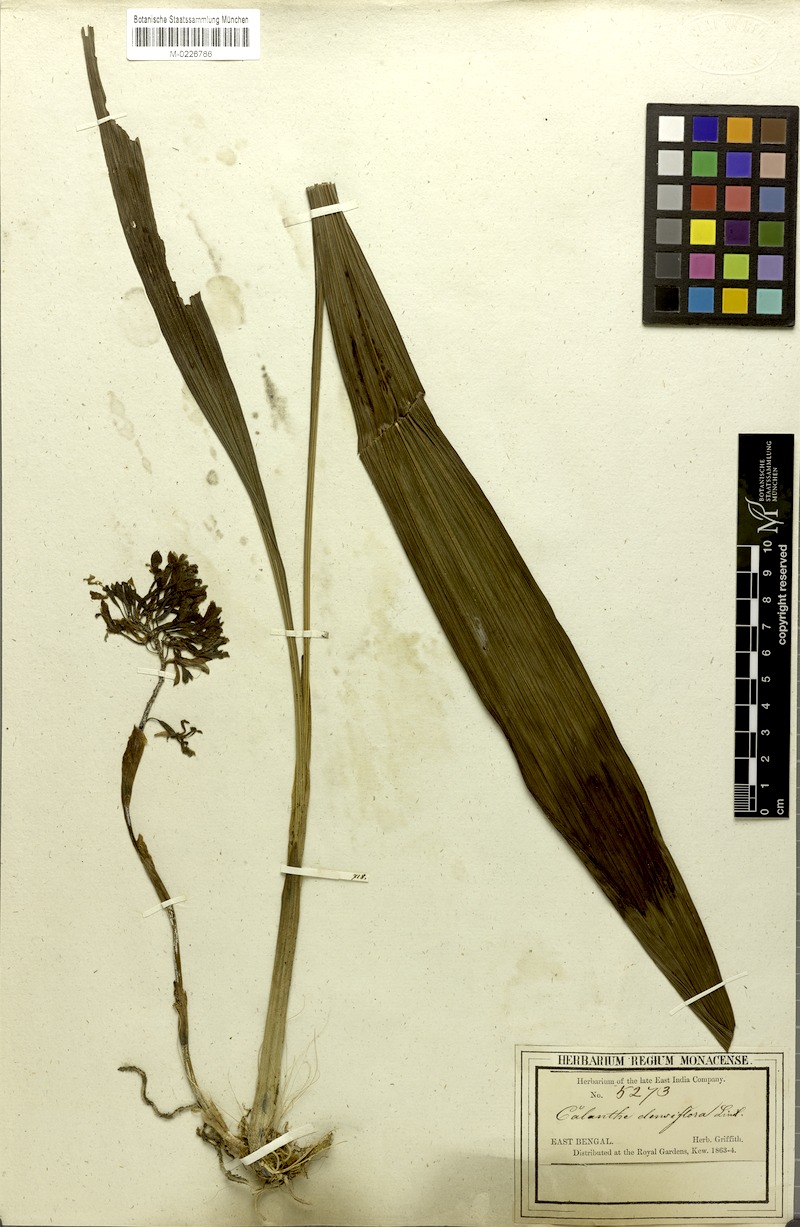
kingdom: Plantae
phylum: Tracheophyta
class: Liliopsida
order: Asparagales
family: Orchidaceae
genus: Calanthe
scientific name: Calanthe densiflora
